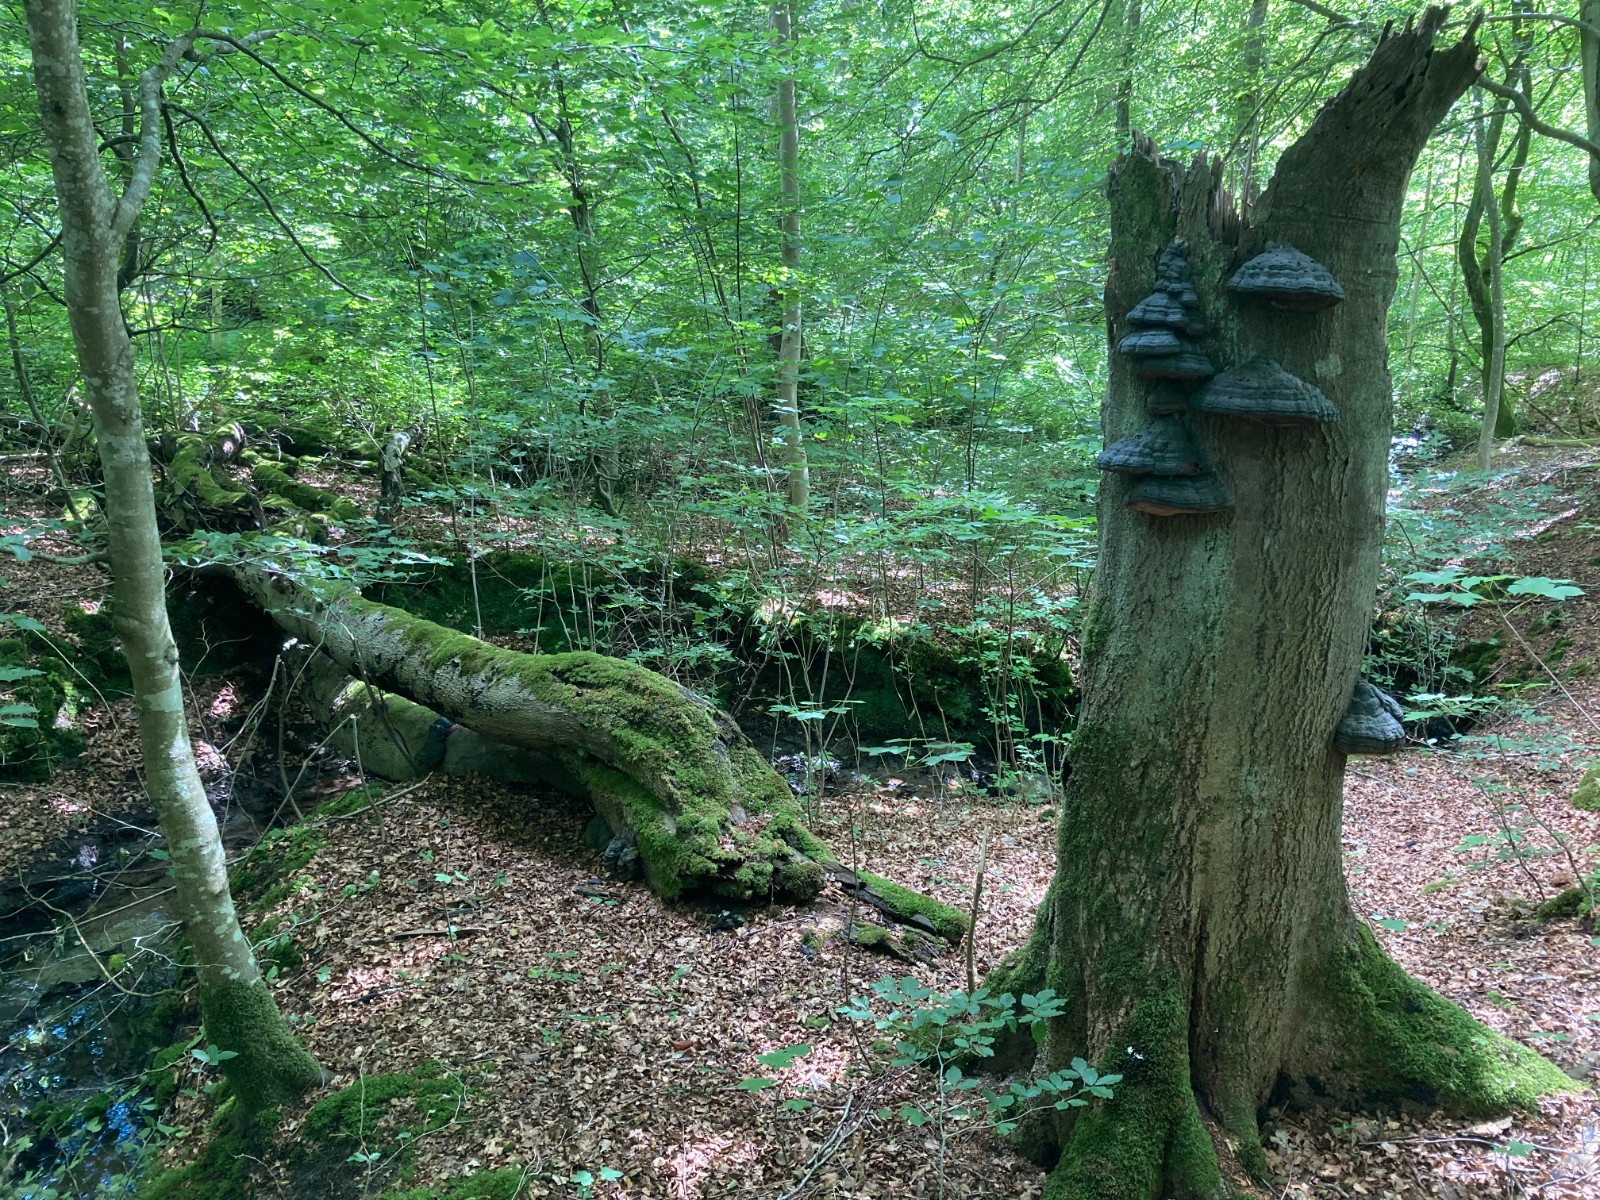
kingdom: Fungi
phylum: Basidiomycota
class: Agaricomycetes
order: Polyporales
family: Polyporaceae
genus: Fomes
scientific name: Fomes fomentarius
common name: tøndersvamp
